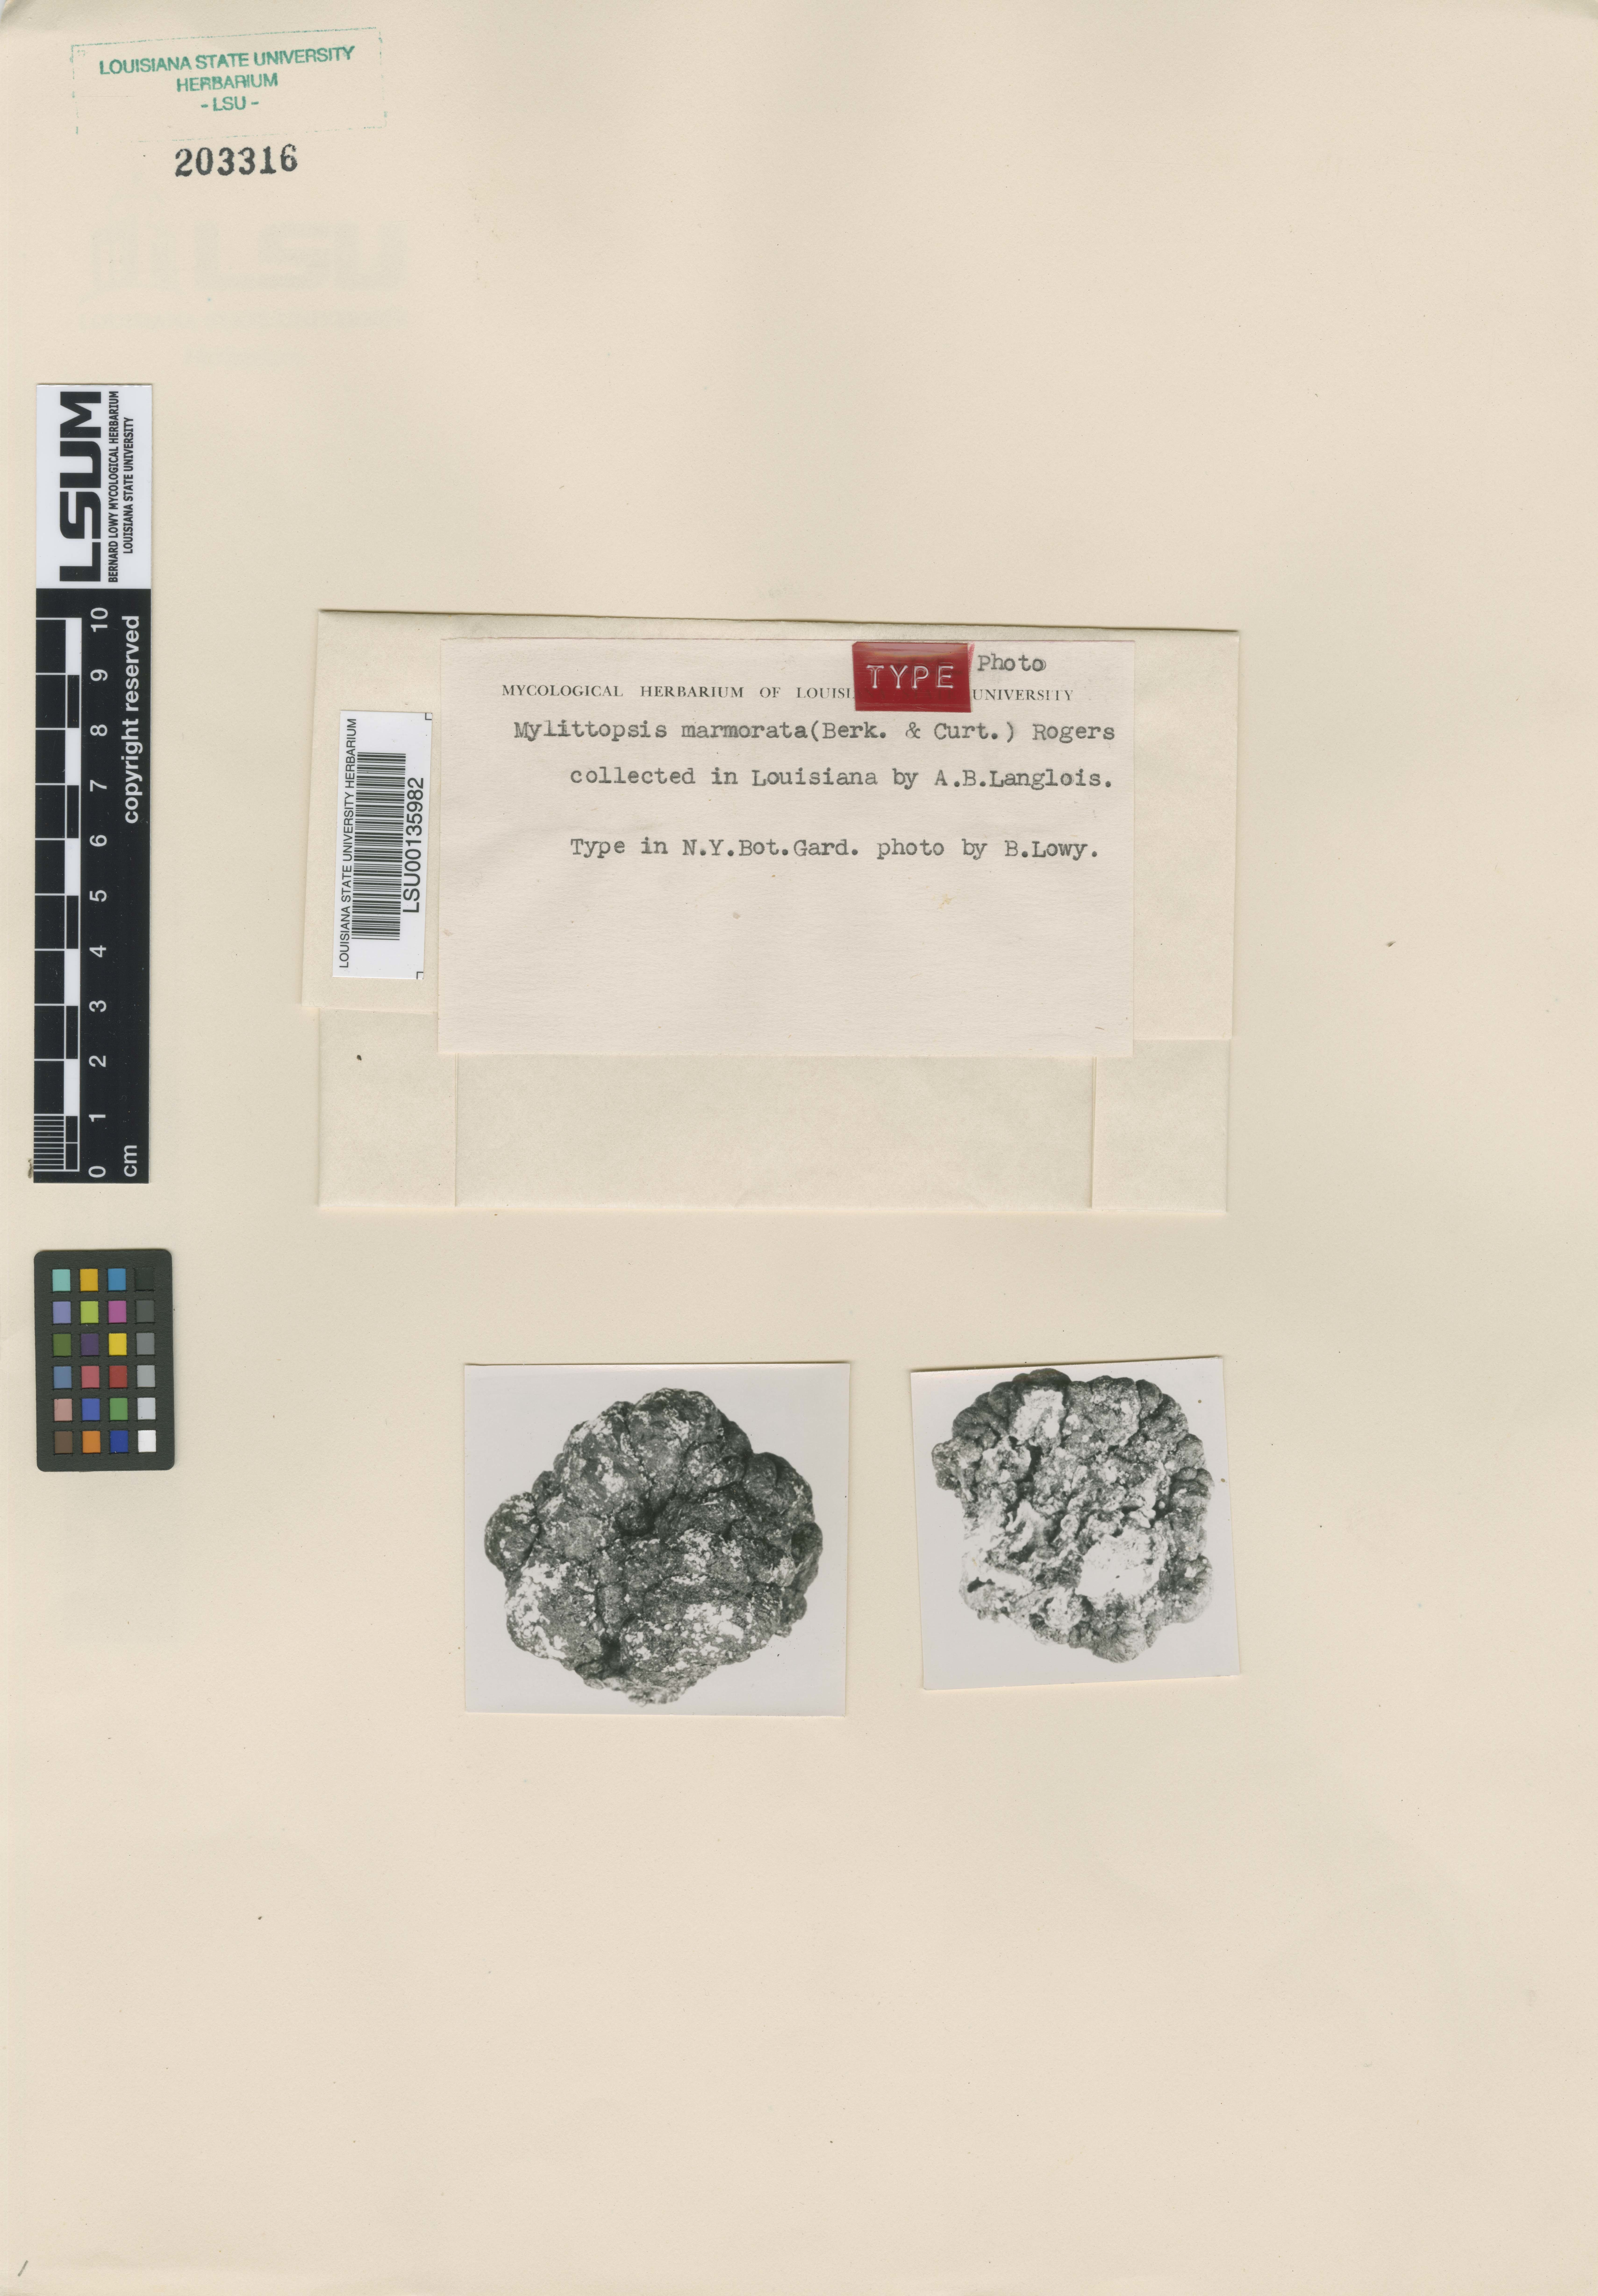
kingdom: Fungi
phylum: Basidiomycota
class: Agaricomycetes
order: Auriculariales
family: Auriculariaceae
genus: Mylittopsis
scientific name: Mylittopsis marmorata
